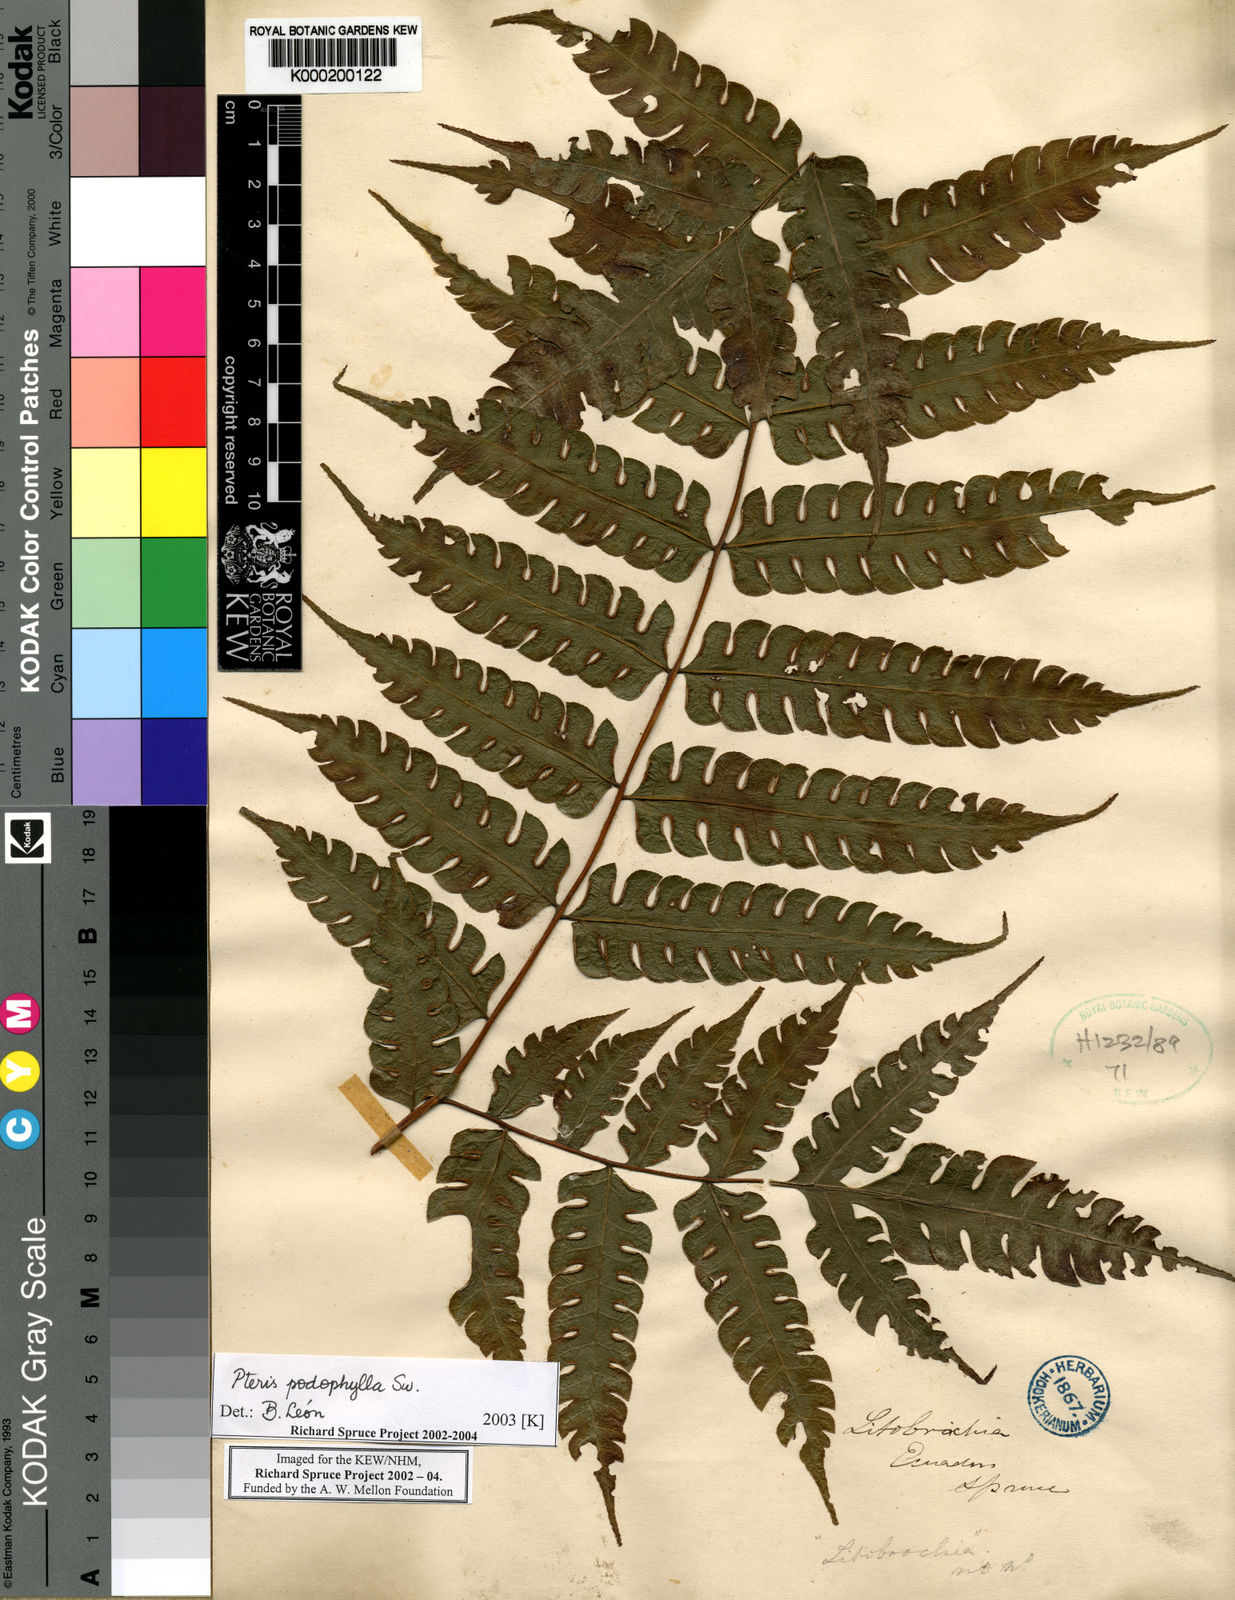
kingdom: Plantae
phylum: Tracheophyta
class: Polypodiopsida
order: Polypodiales
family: Pteridaceae
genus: Pteris
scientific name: Pteris
